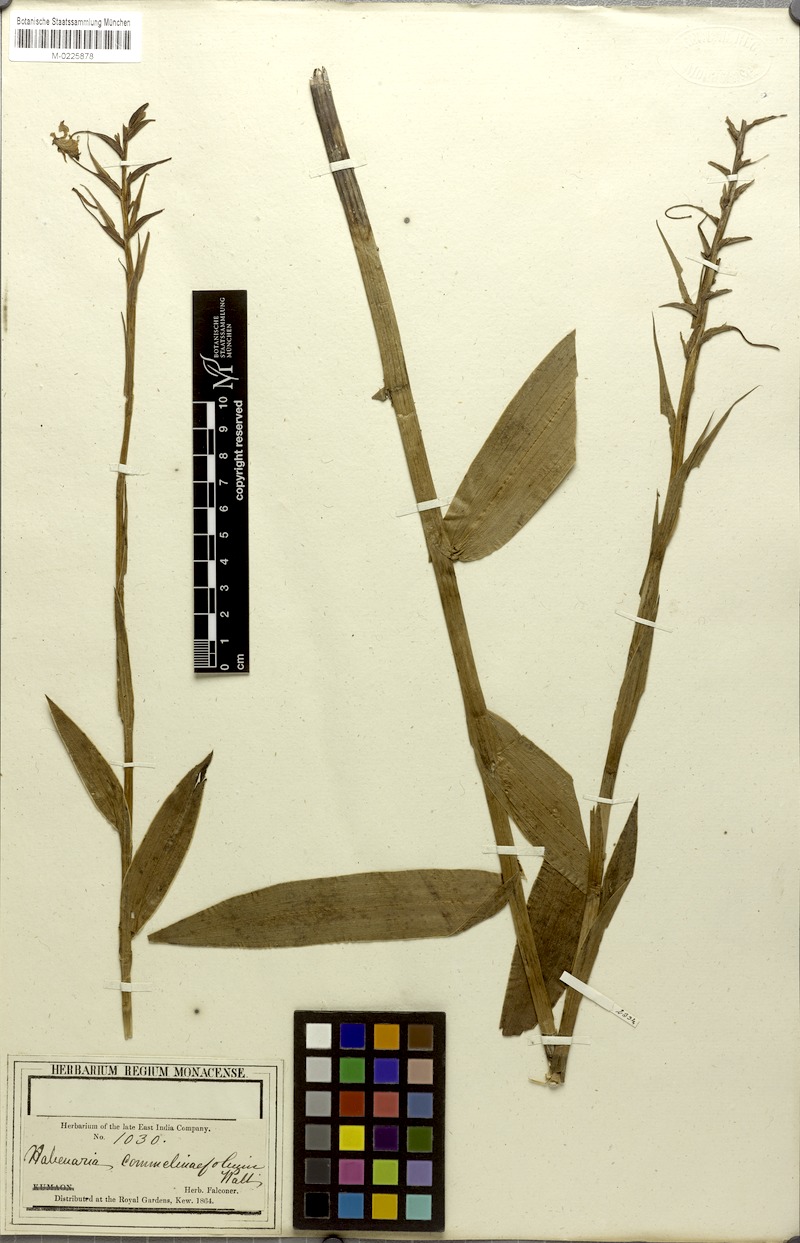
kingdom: Plantae
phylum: Tracheophyta
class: Liliopsida
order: Asparagales
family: Orchidaceae
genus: Habenaria
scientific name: Habenaria commelinifolia
